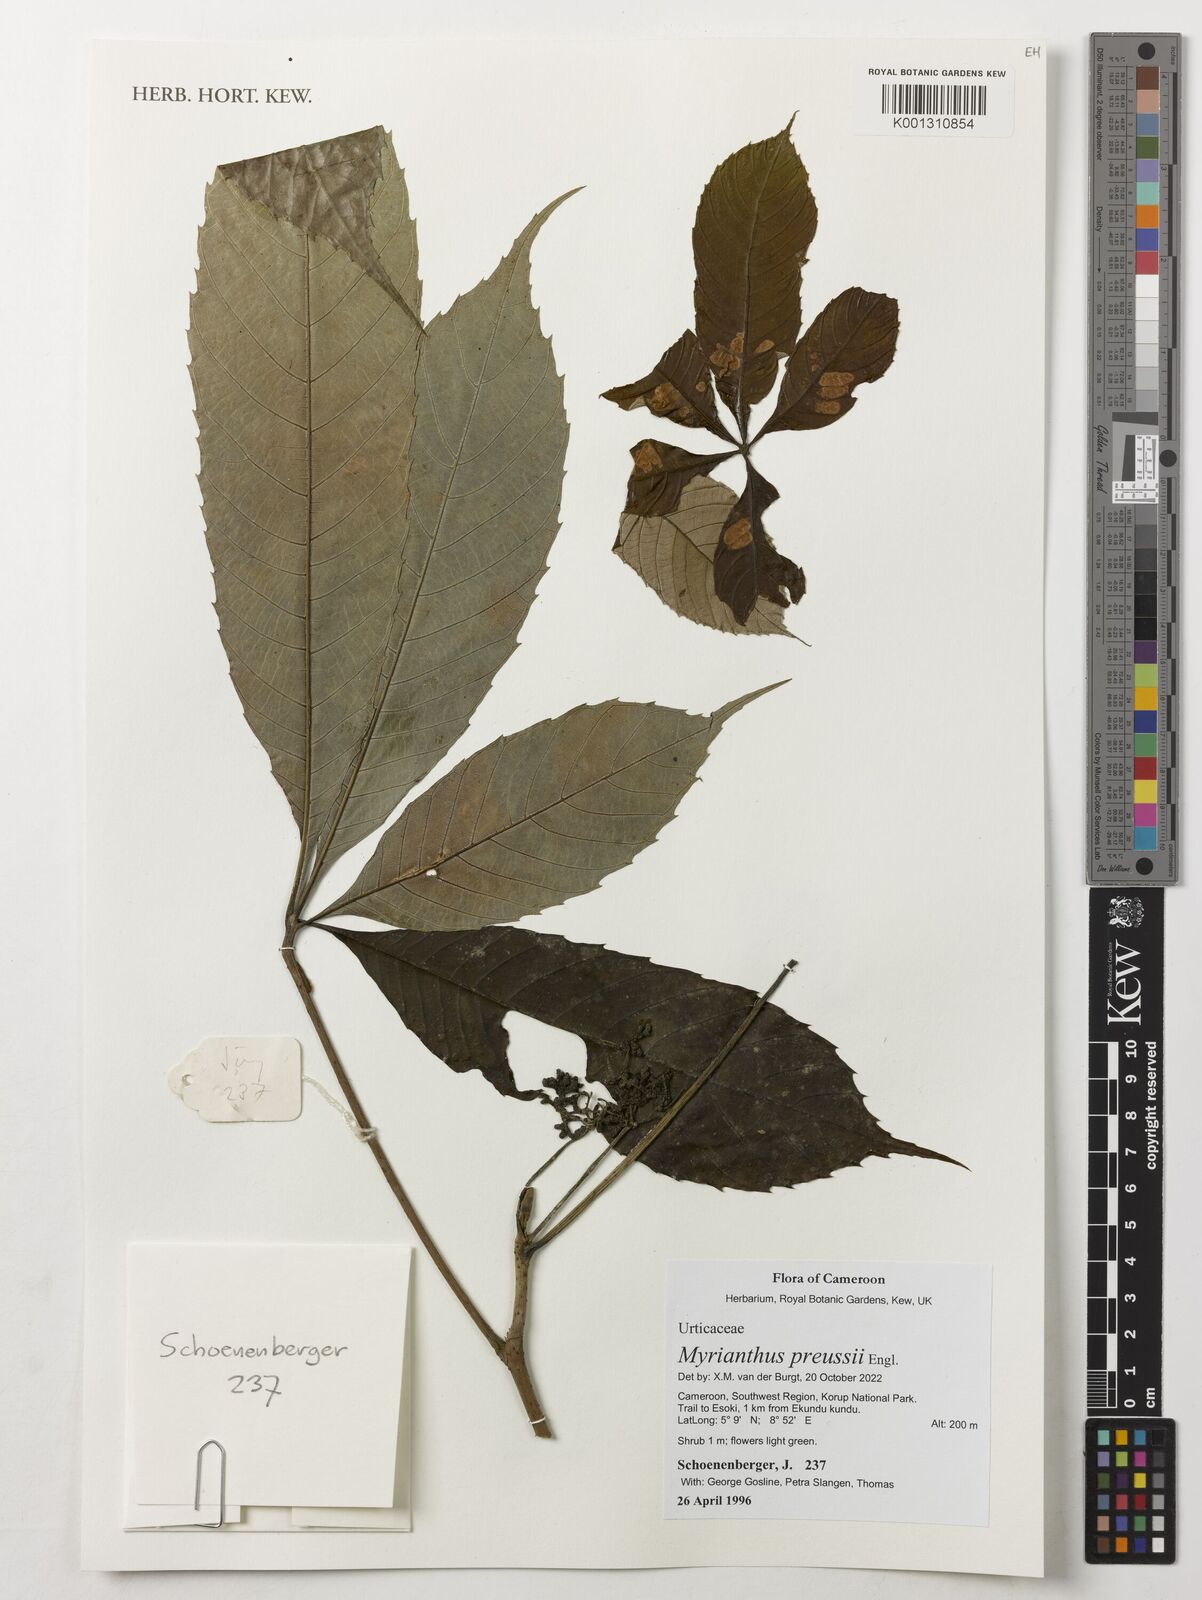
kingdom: Plantae
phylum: Tracheophyta
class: Magnoliopsida
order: Rosales
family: Urticaceae
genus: Myrianthus
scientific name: Myrianthus preussii
